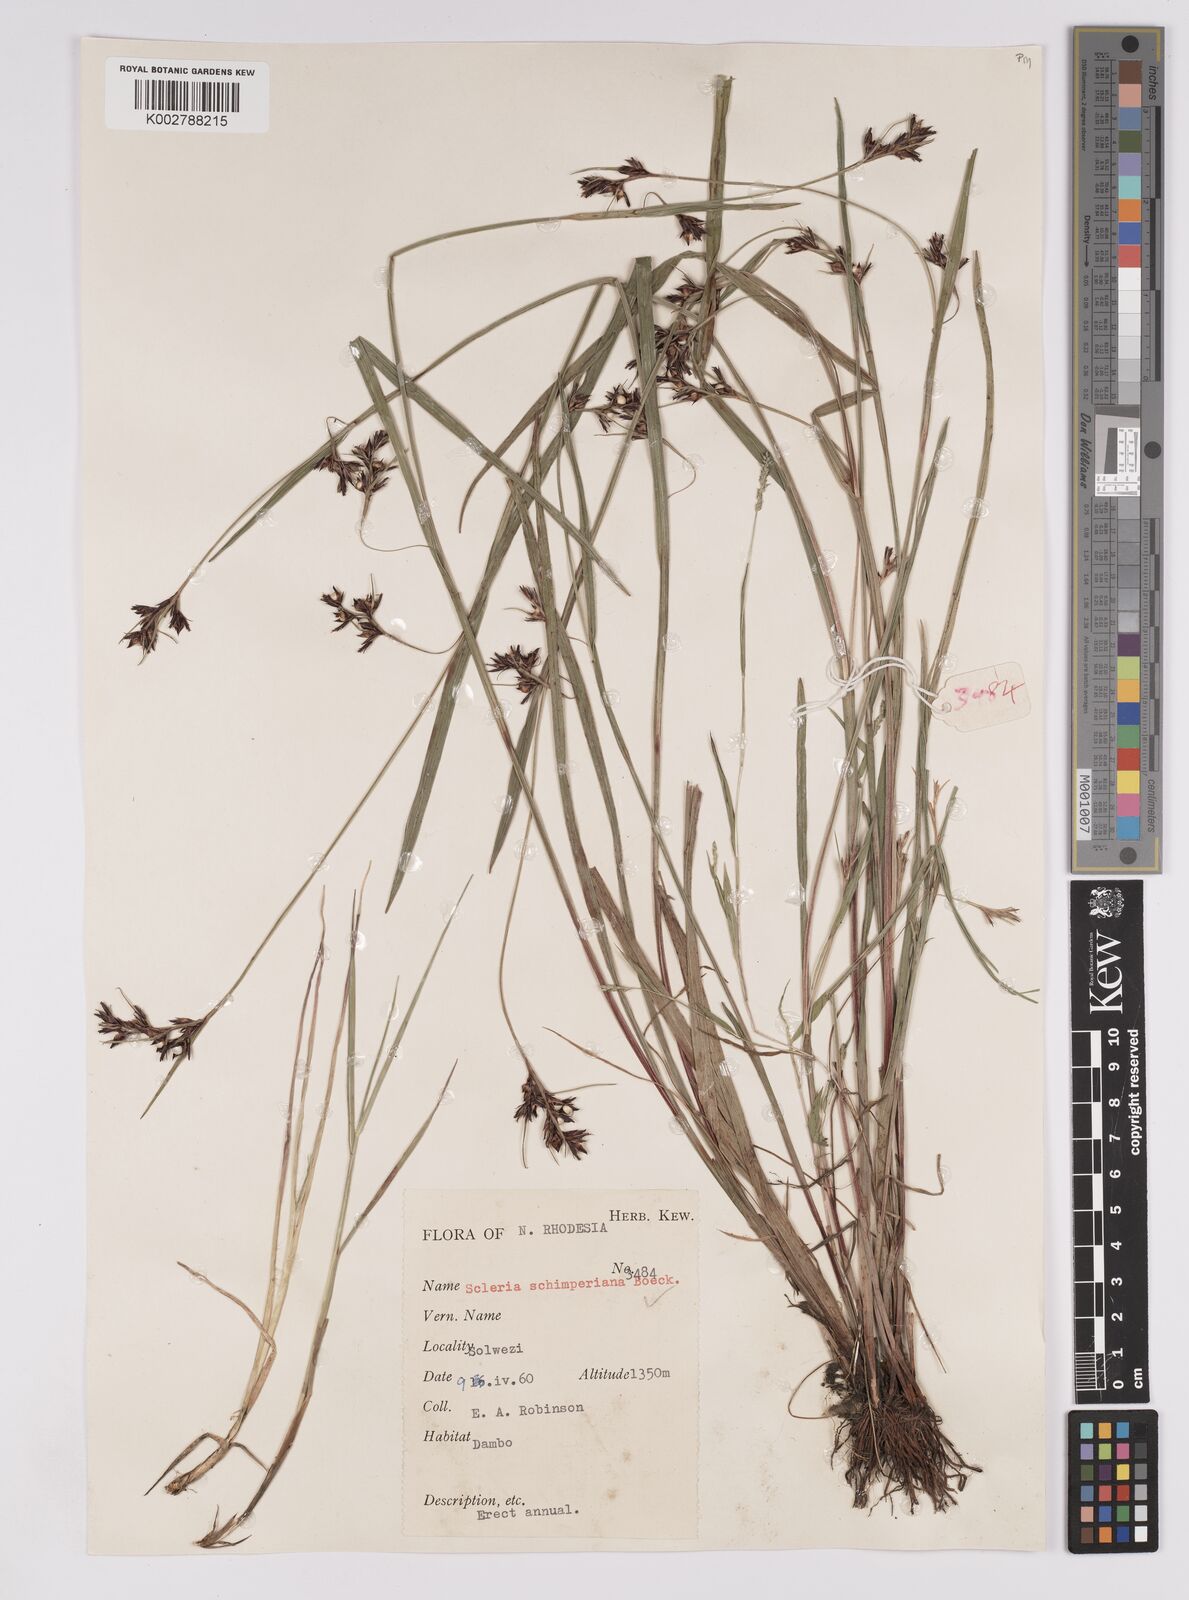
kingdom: Plantae
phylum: Tracheophyta
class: Liliopsida
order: Poales
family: Cyperaceae
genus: Scleria
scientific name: Scleria schimperiana
